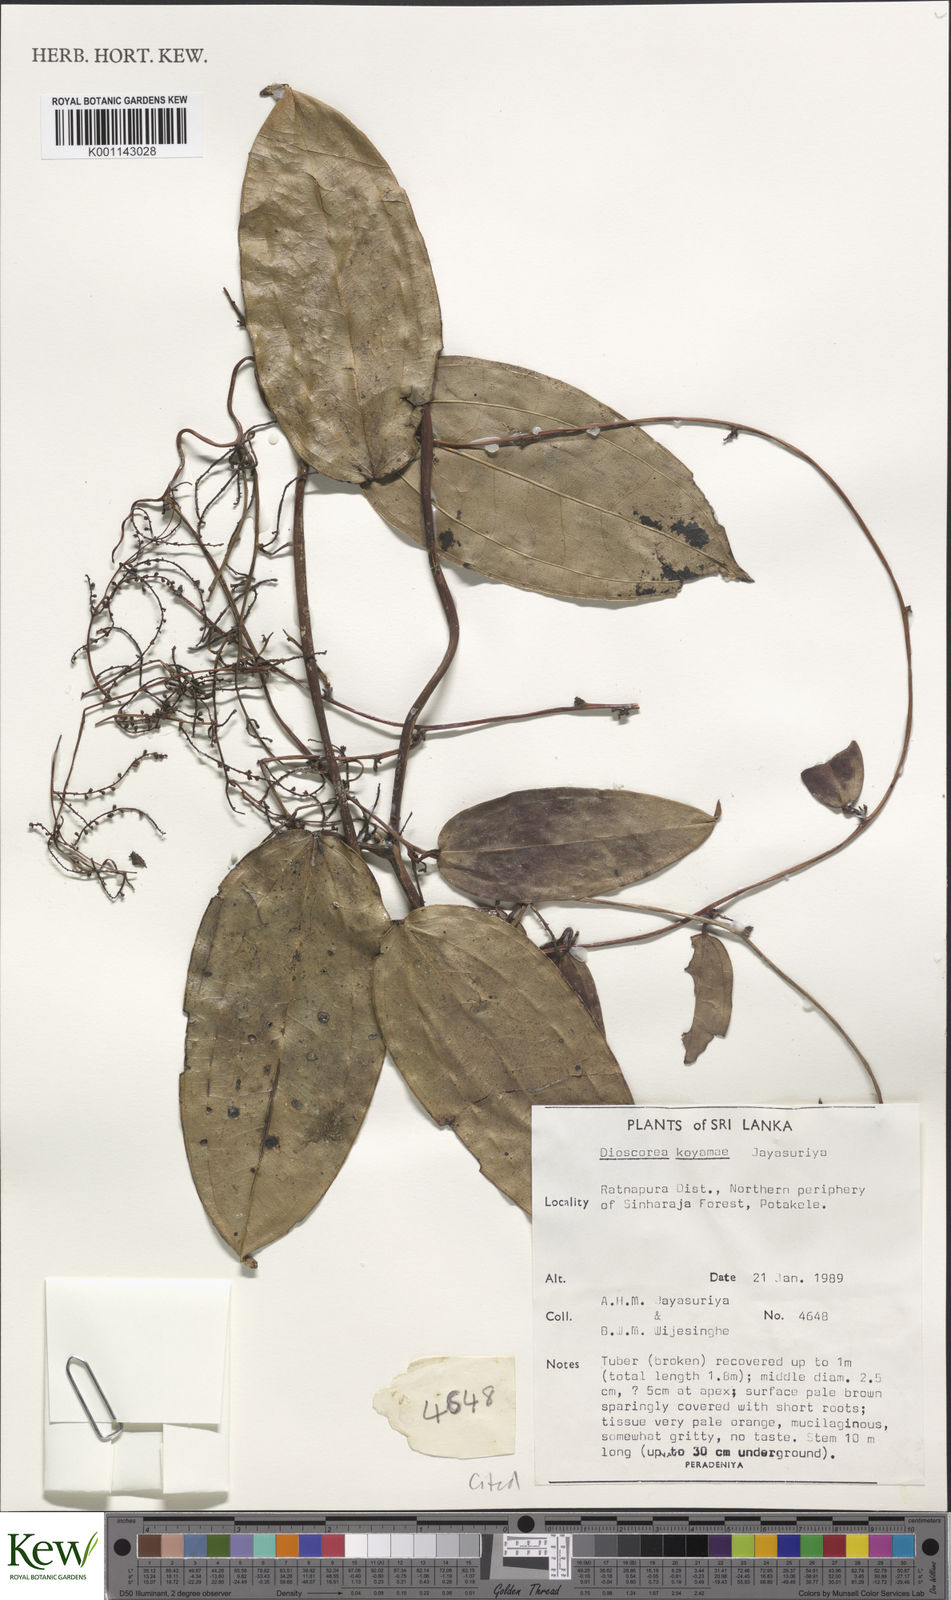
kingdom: Plantae
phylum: Tracheophyta
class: Liliopsida
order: Dioscoreales
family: Dioscoreaceae
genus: Dioscorea
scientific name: Dioscorea koyamae
